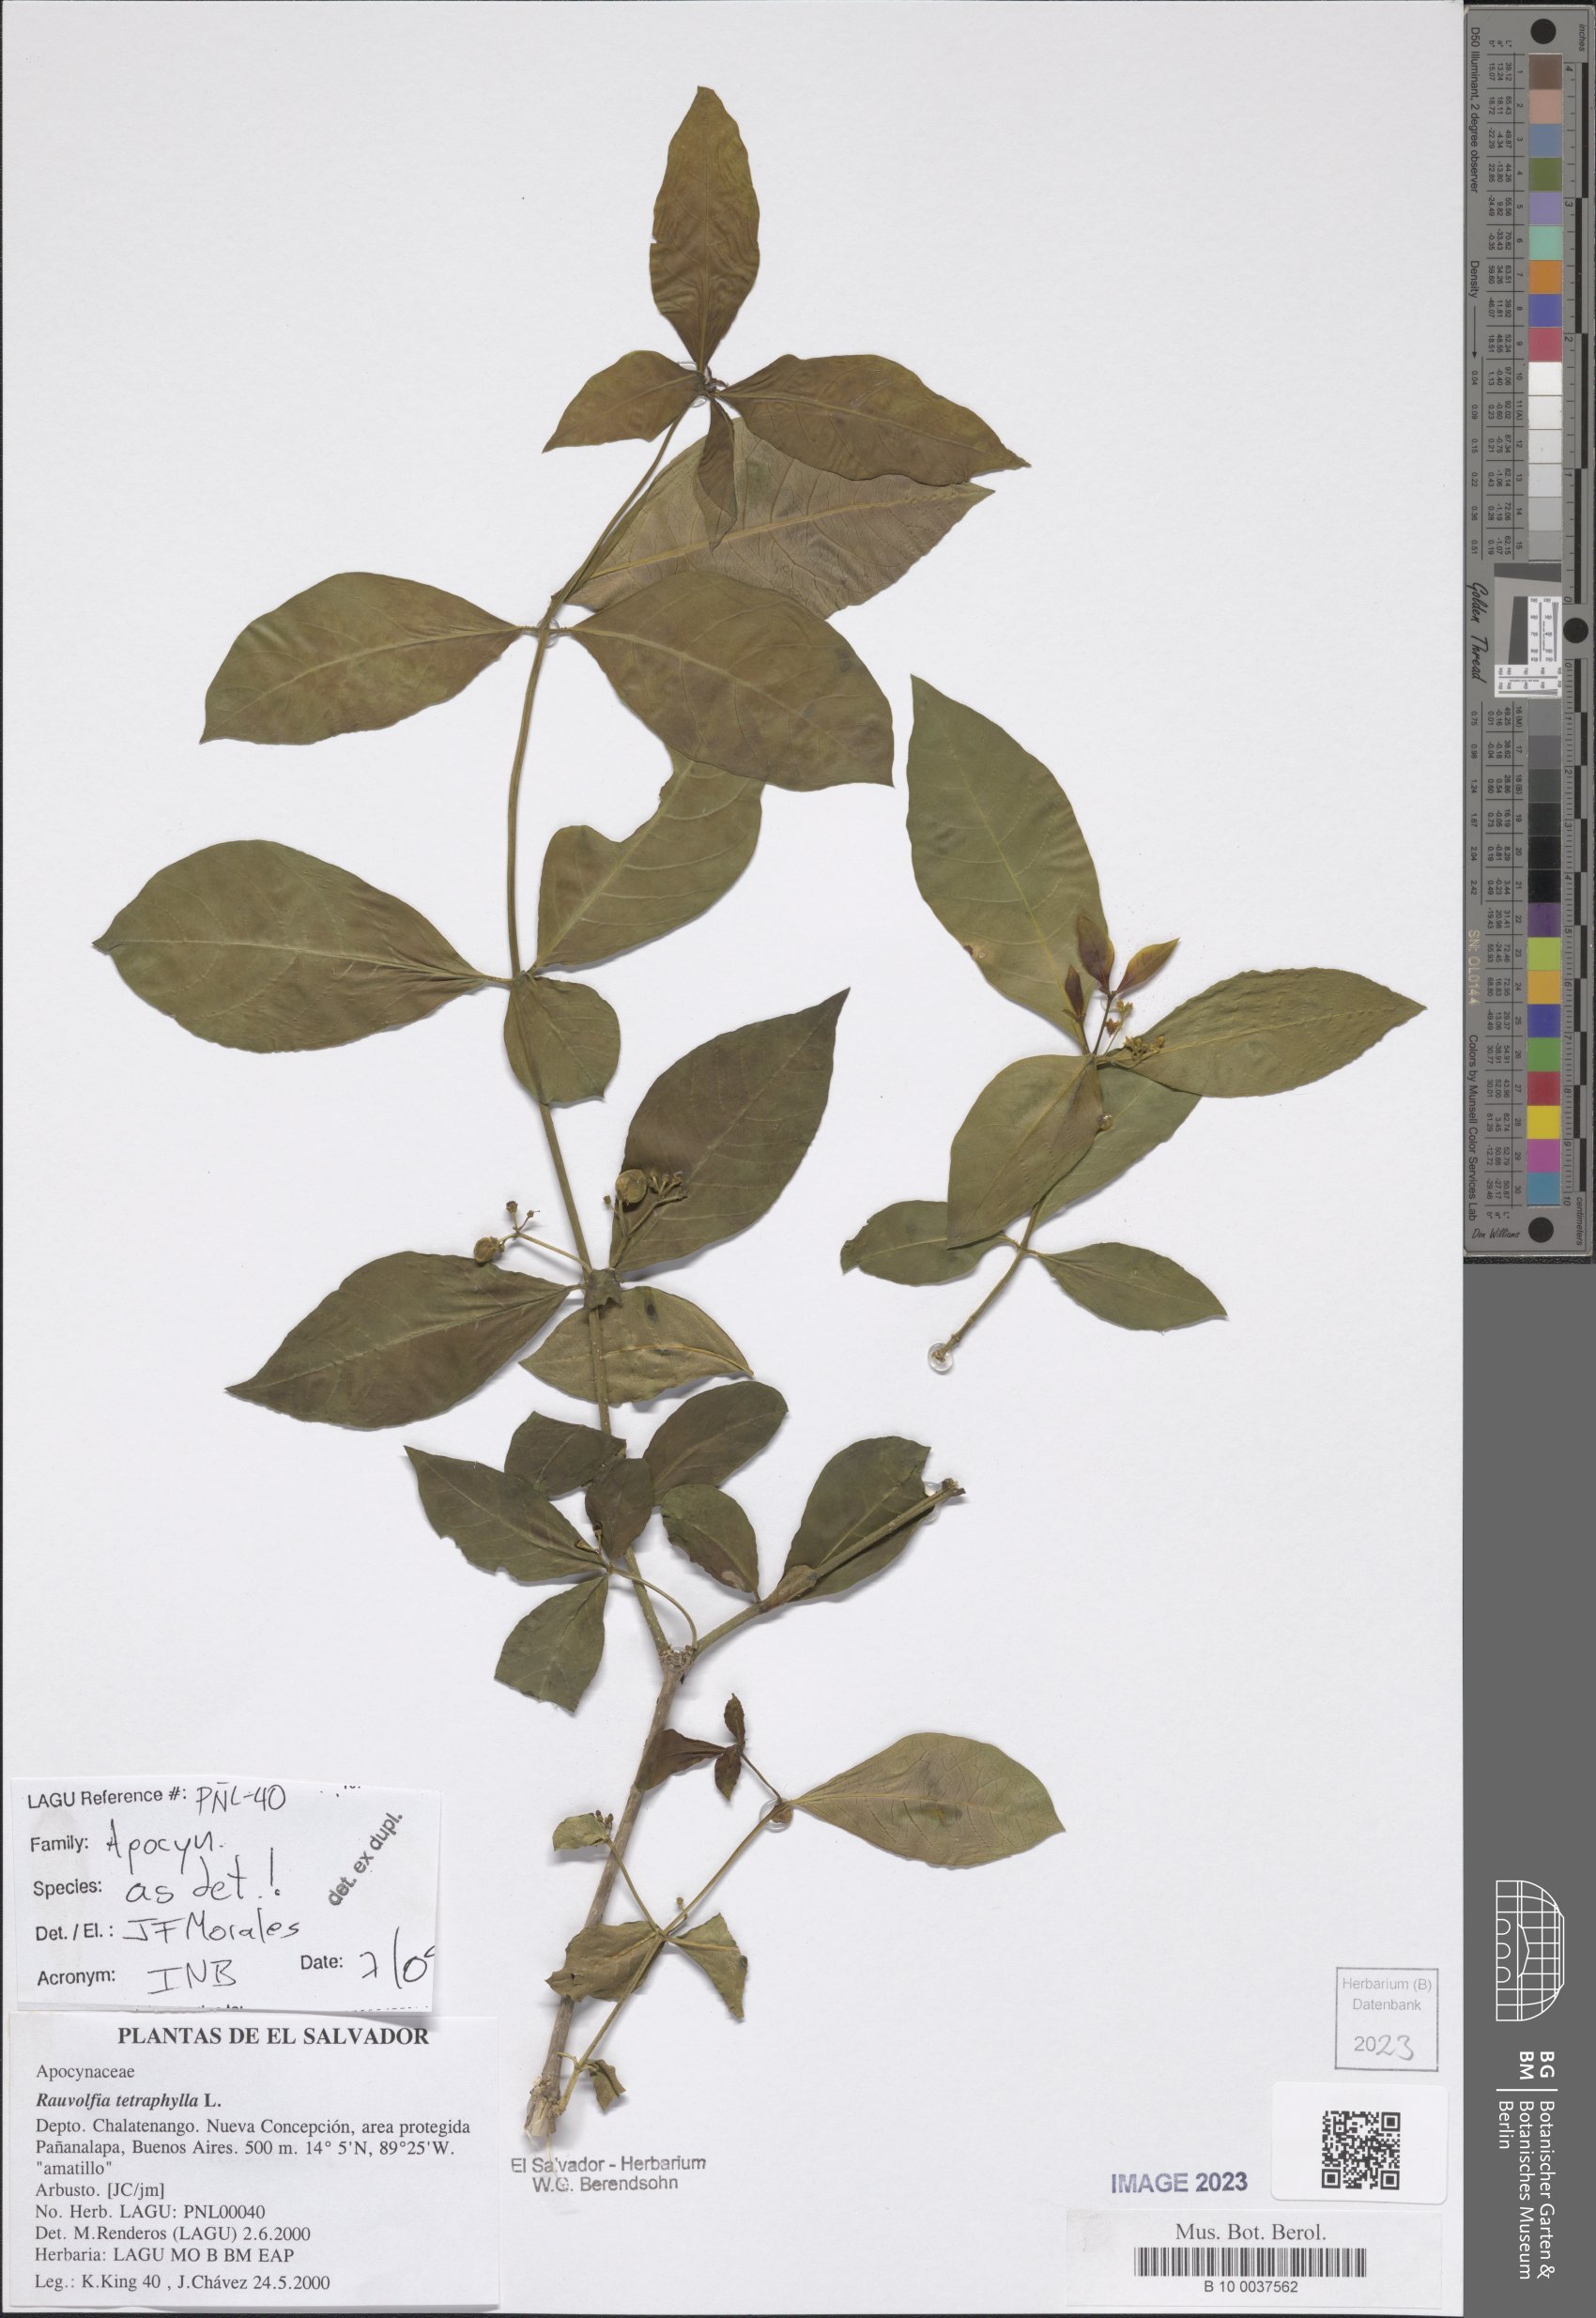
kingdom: Plantae
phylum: Tracheophyta
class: Magnoliopsida
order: Gentianales
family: Apocynaceae
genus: Rauvolfia
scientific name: Rauvolfia tetraphylla
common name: Four-leaf devil-pepper
